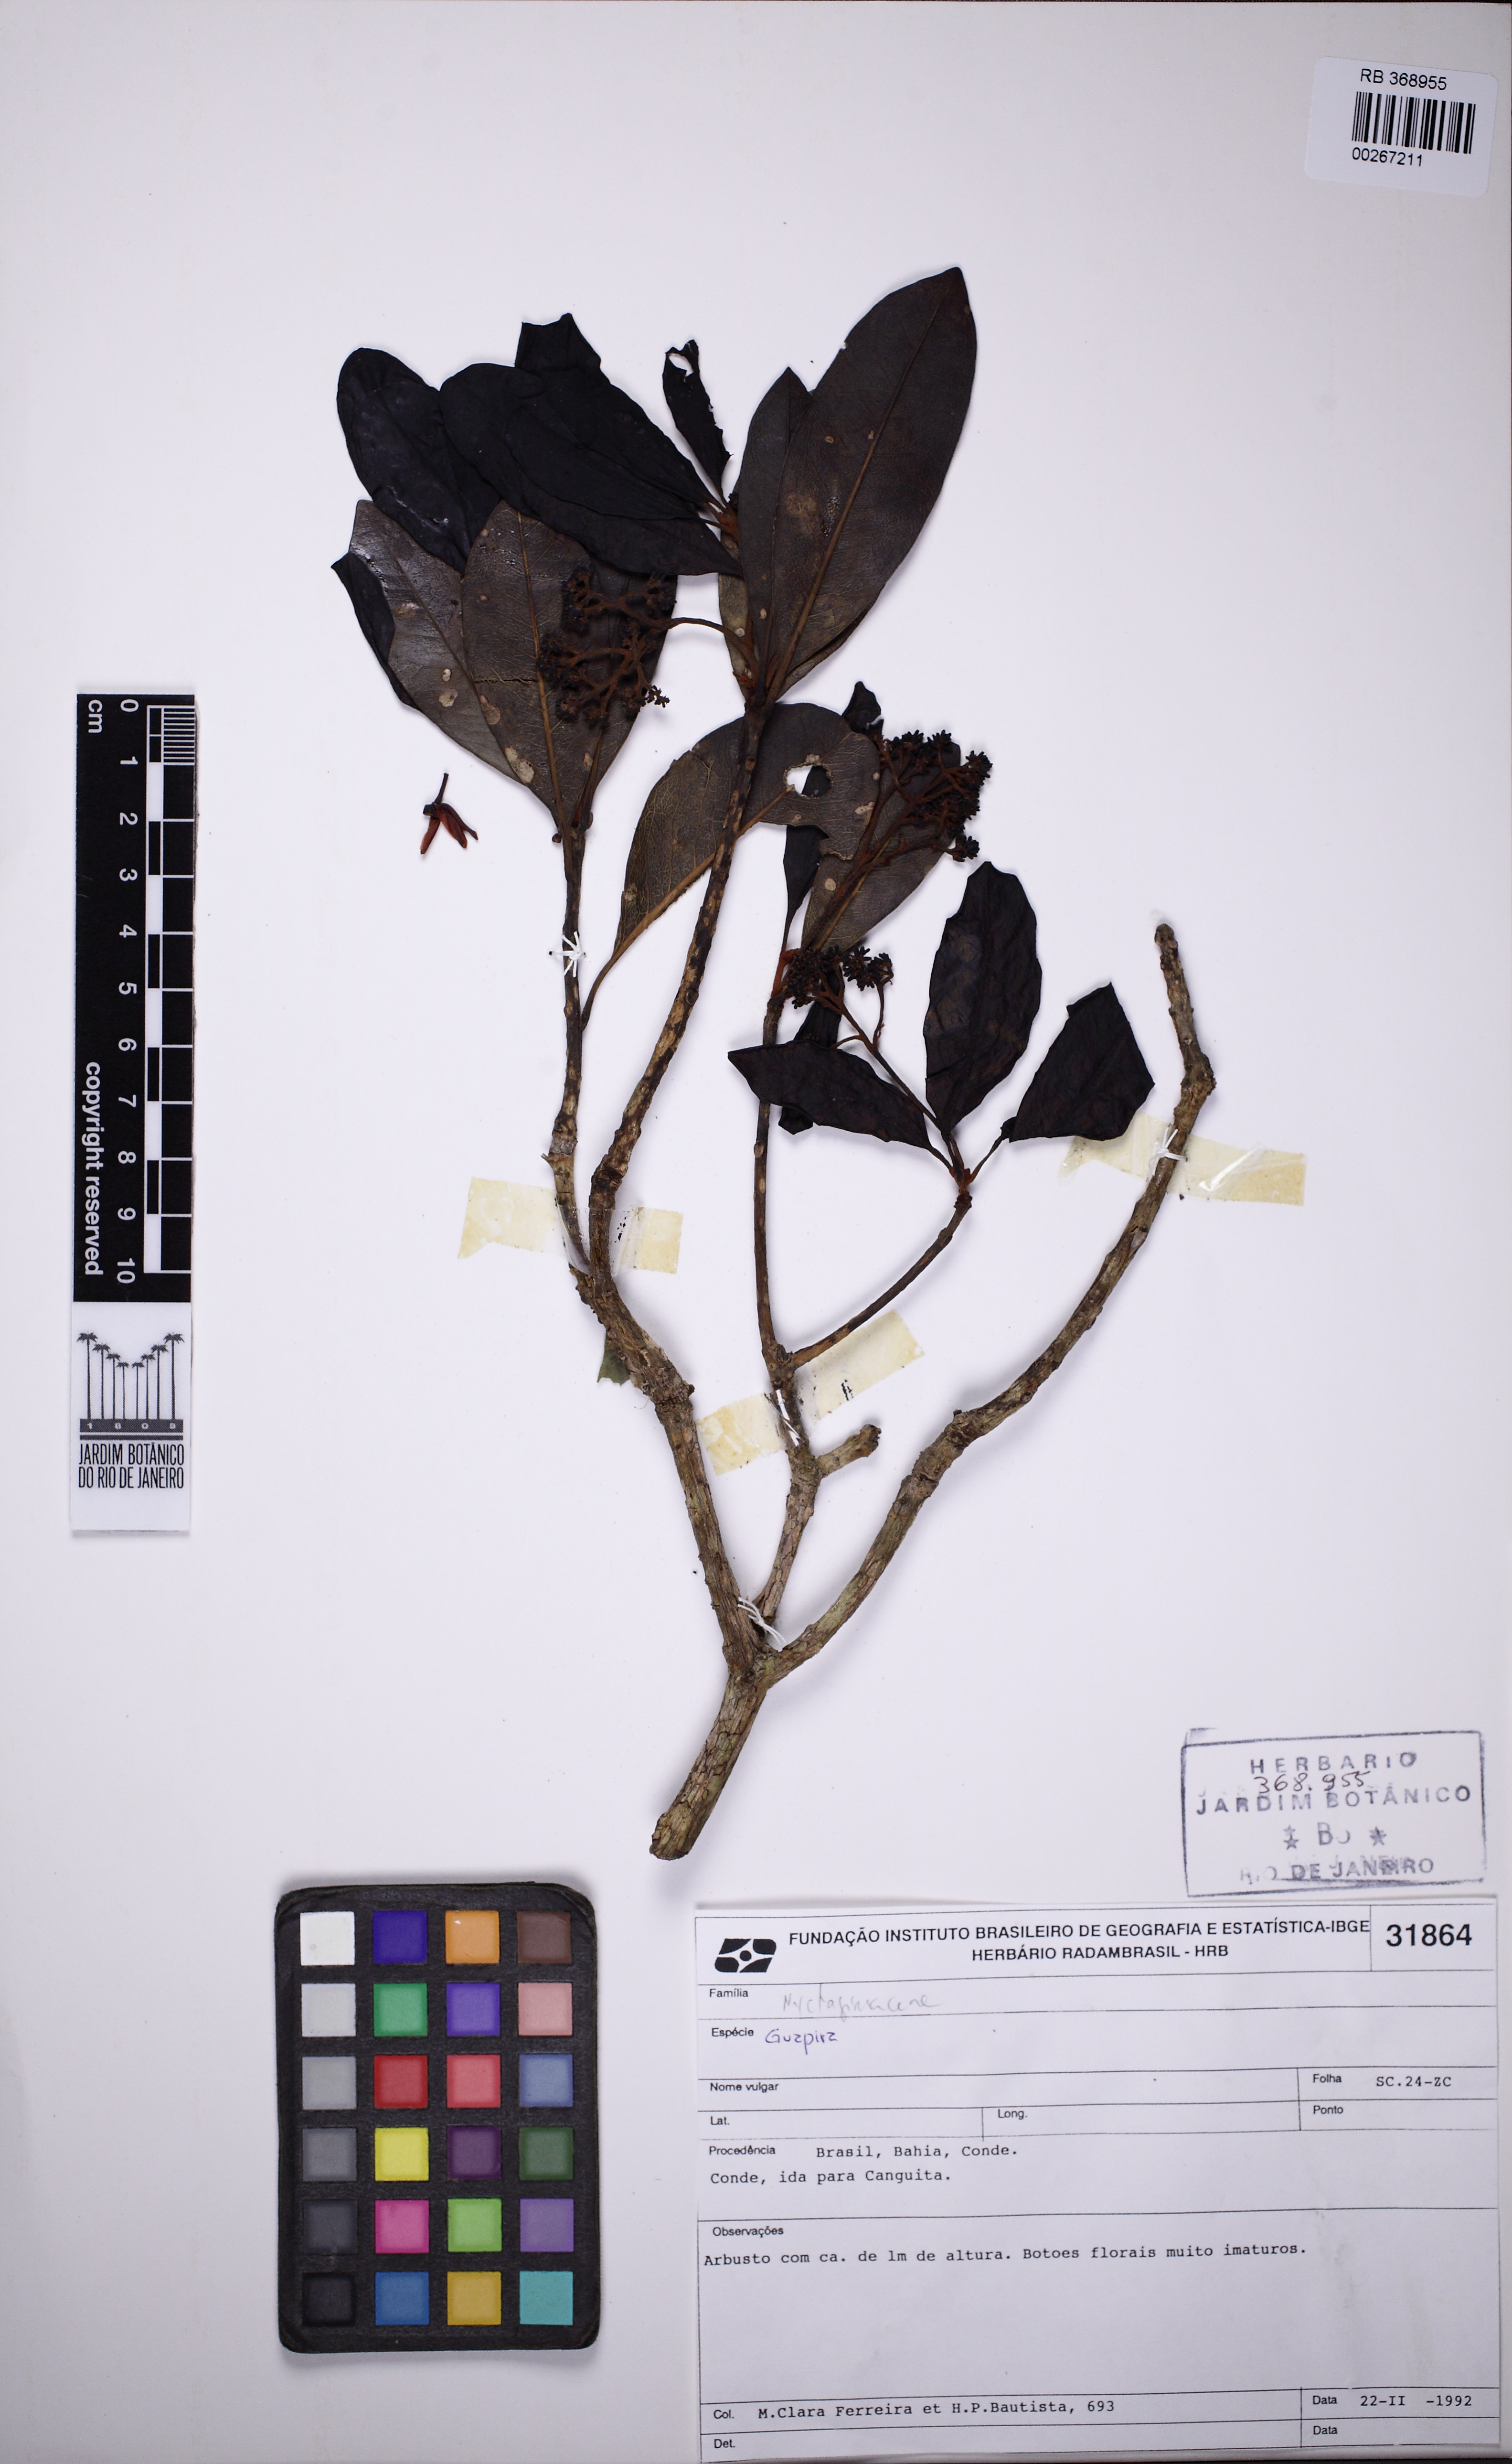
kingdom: Plantae
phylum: Tracheophyta
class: Magnoliopsida
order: Caryophyllales
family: Nyctaginaceae
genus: Guapira
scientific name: Guapira graciliflora
